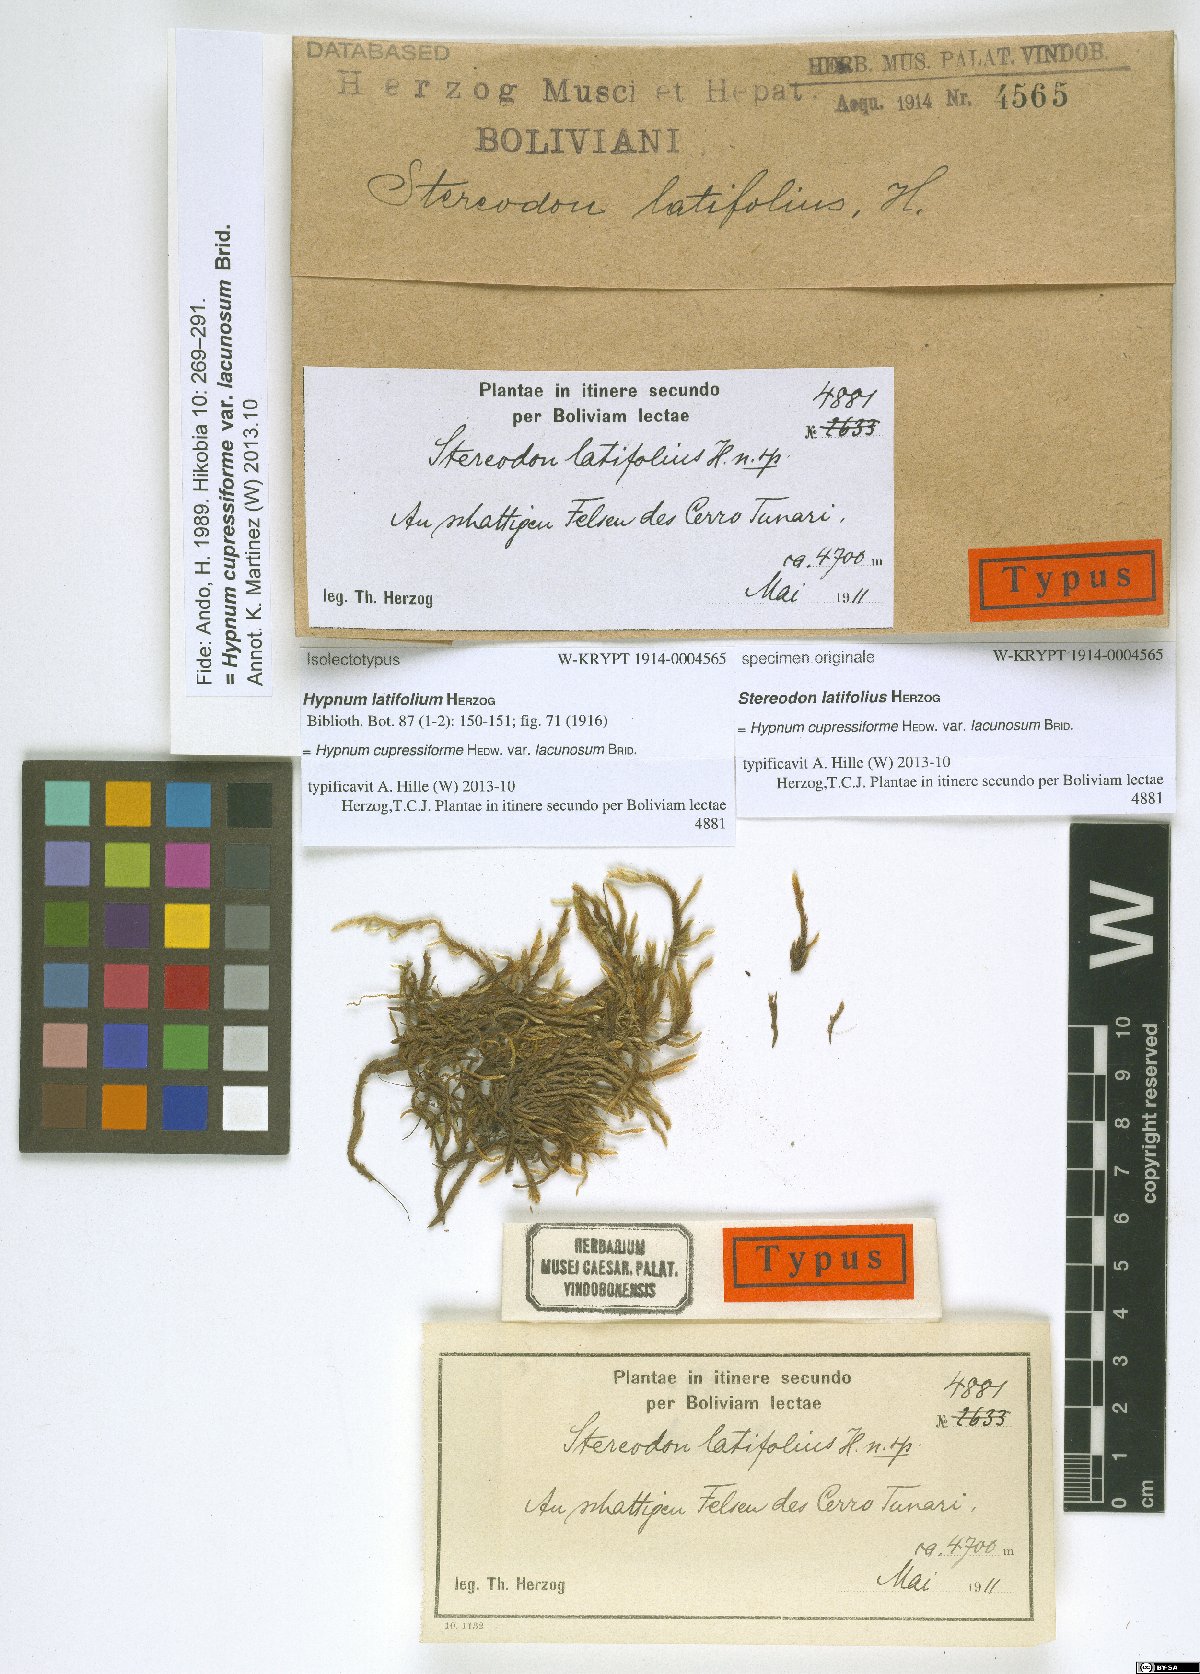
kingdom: Plantae
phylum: Bryophyta
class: Bryopsida
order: Hypnales
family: Hypnaceae
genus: Hypnum
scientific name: Hypnum cupressiforme
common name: Cypress-leaved plait-moss
